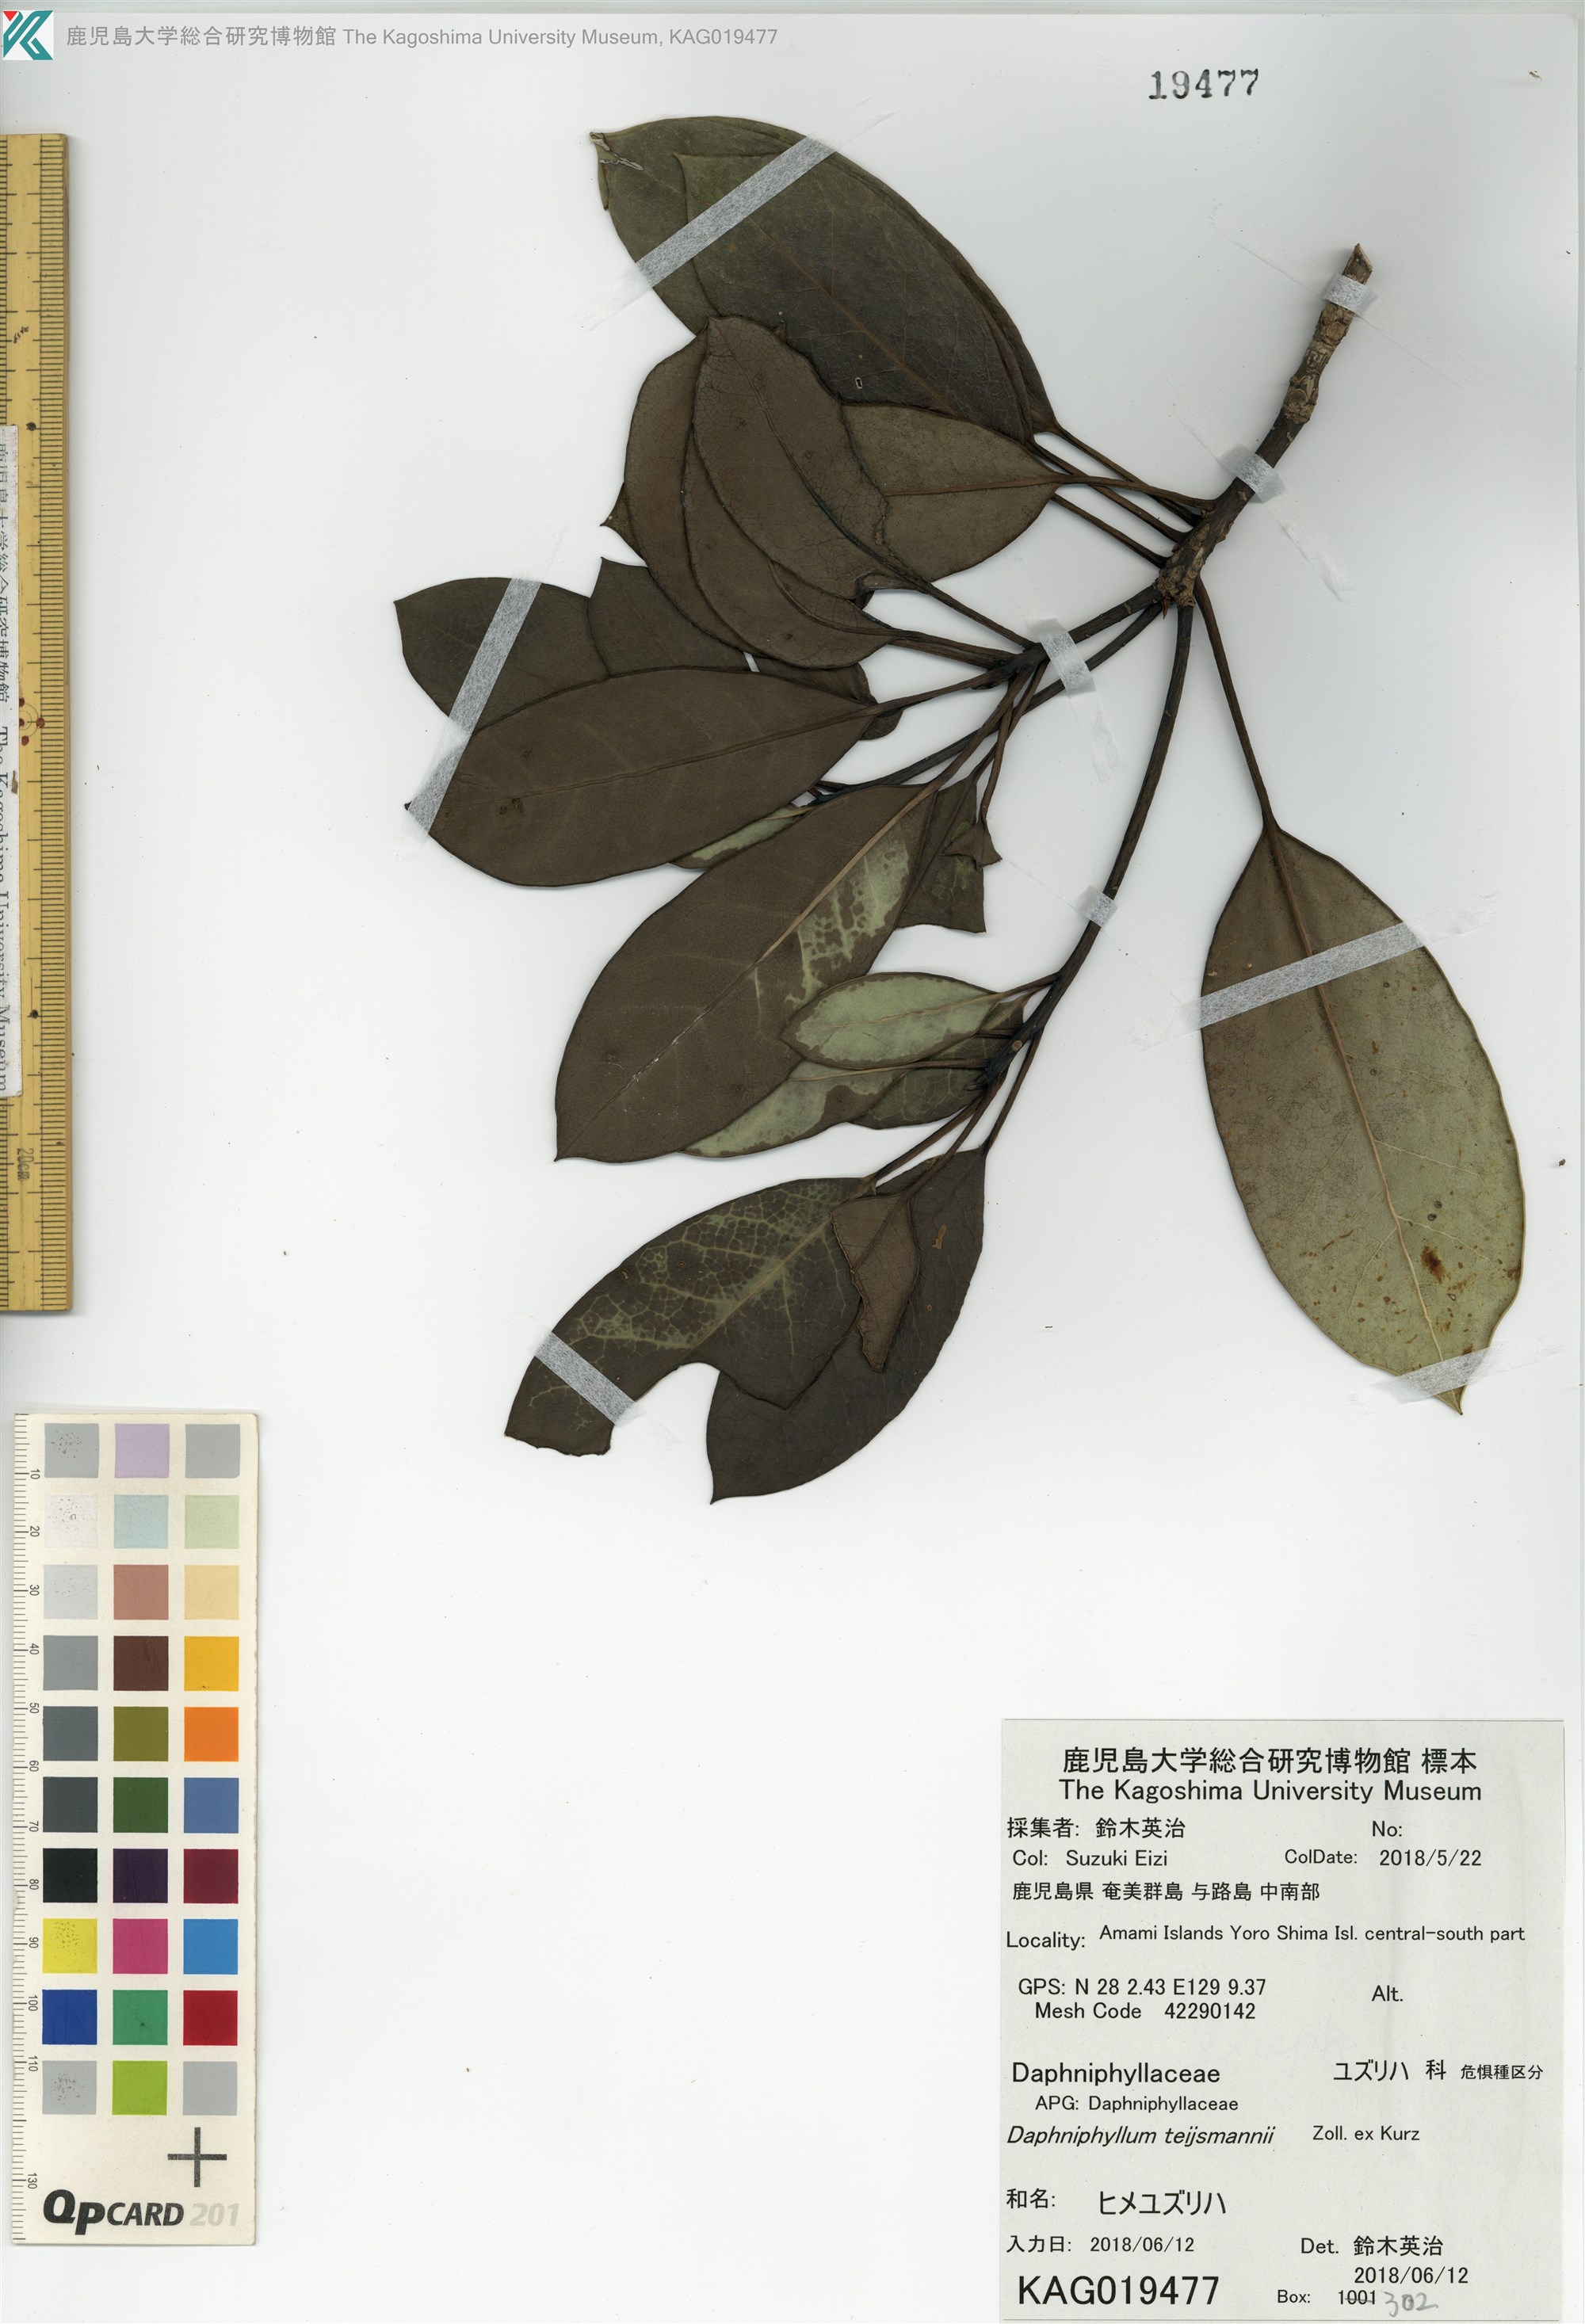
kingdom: Plantae
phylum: Tracheophyta
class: Magnoliopsida
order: Saxifragales
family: Daphniphyllaceae
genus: Daphniphyllum
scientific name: Daphniphyllum teijsmannii
